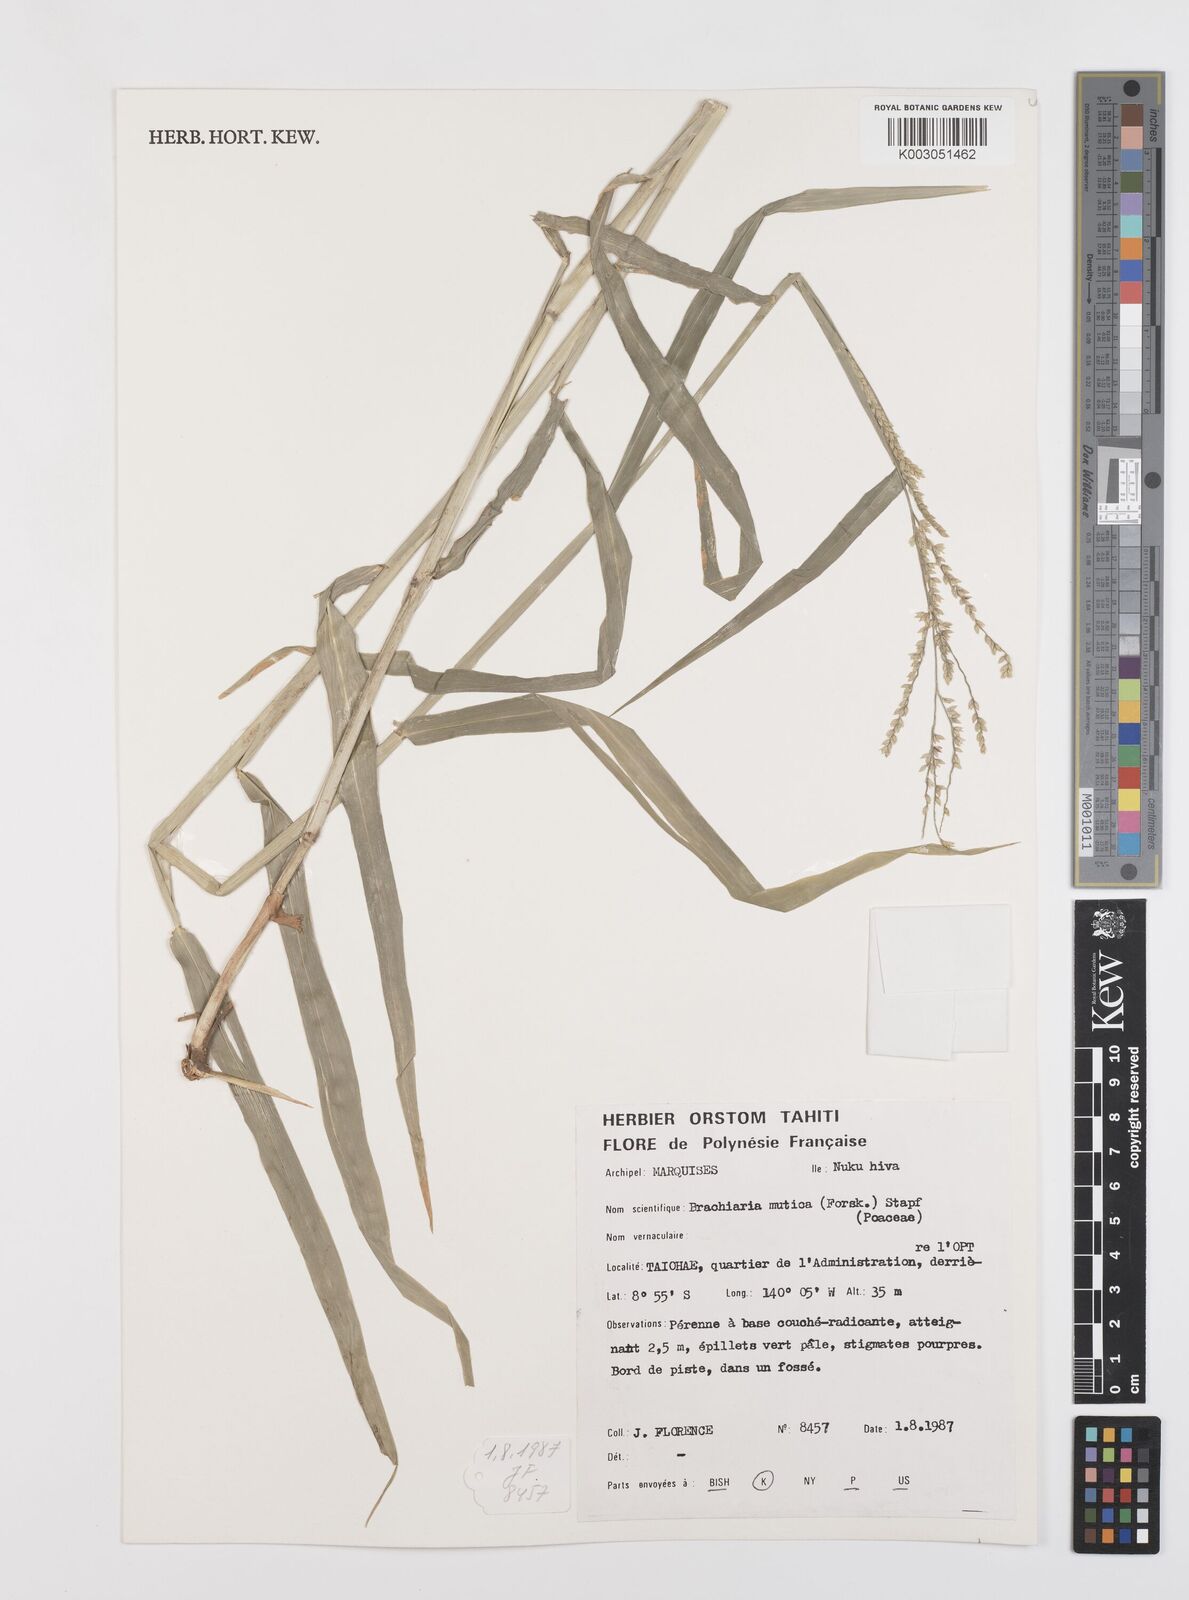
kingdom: Plantae
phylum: Tracheophyta
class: Liliopsida
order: Poales
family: Poaceae
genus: Urochloa
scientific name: Urochloa mutica
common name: Para grass
